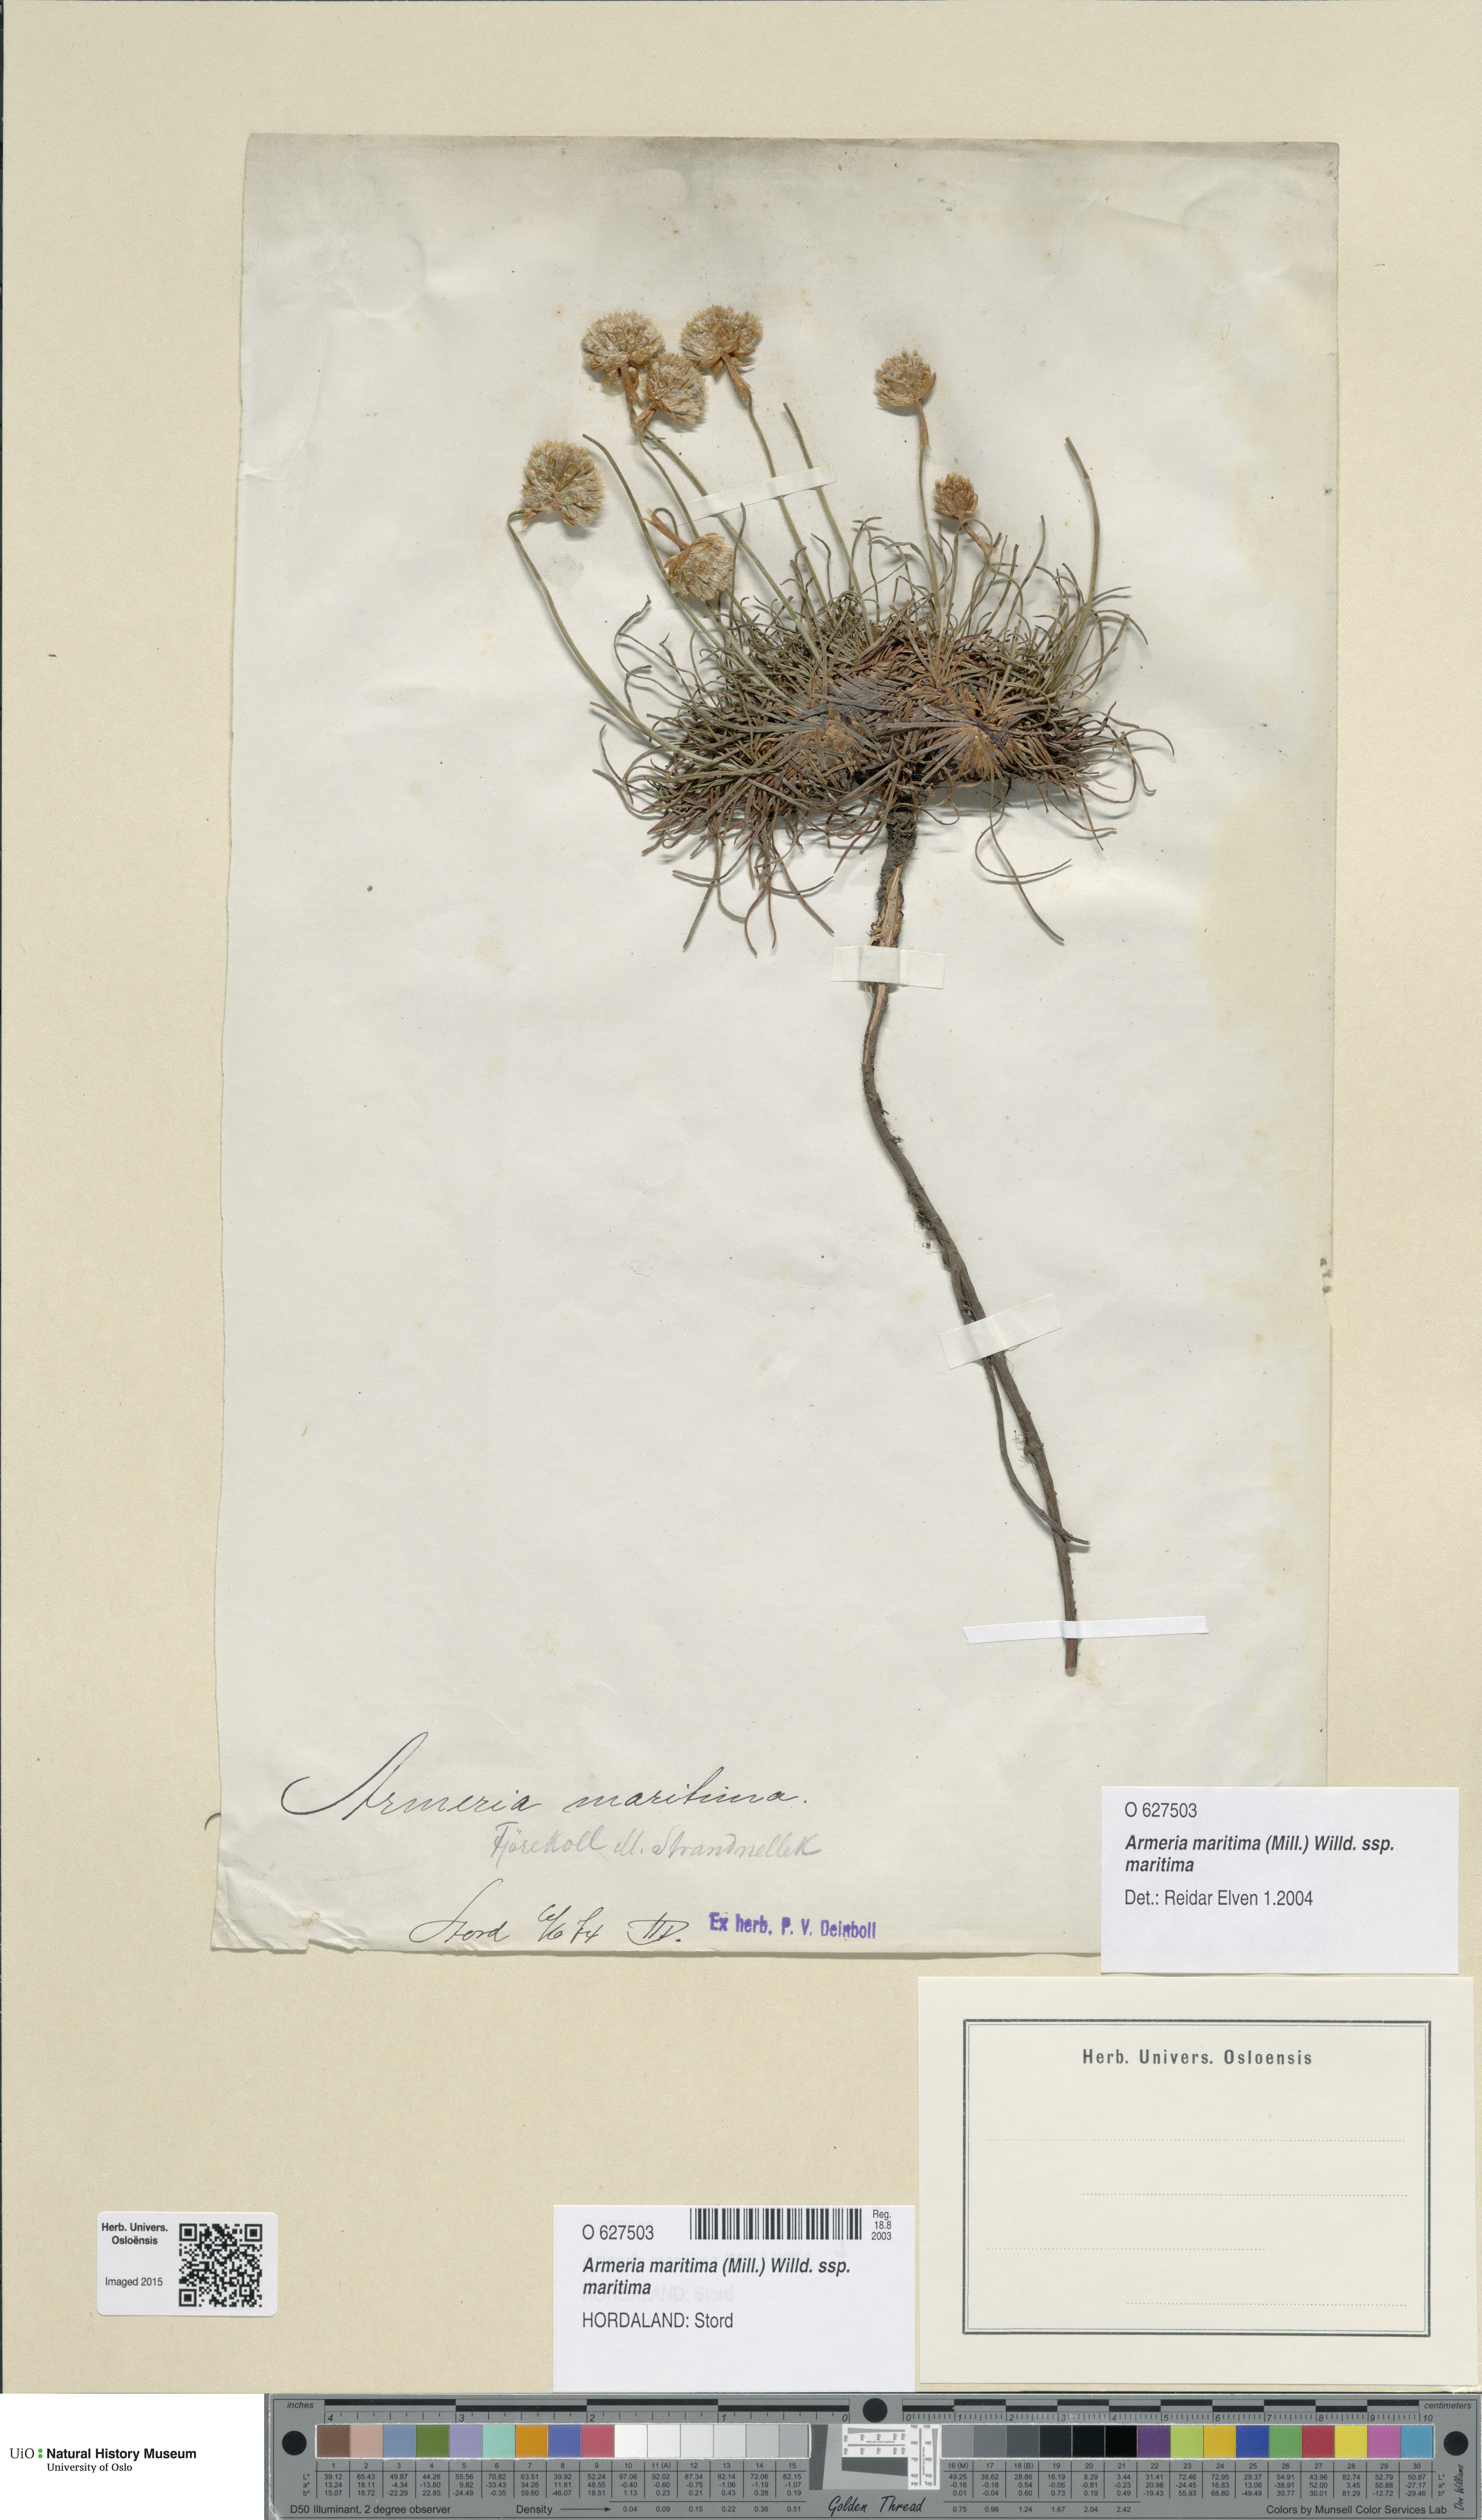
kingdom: Plantae
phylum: Tracheophyta
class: Magnoliopsida
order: Caryophyllales
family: Plumbaginaceae
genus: Armeria
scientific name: Armeria maritima
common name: Thrift
